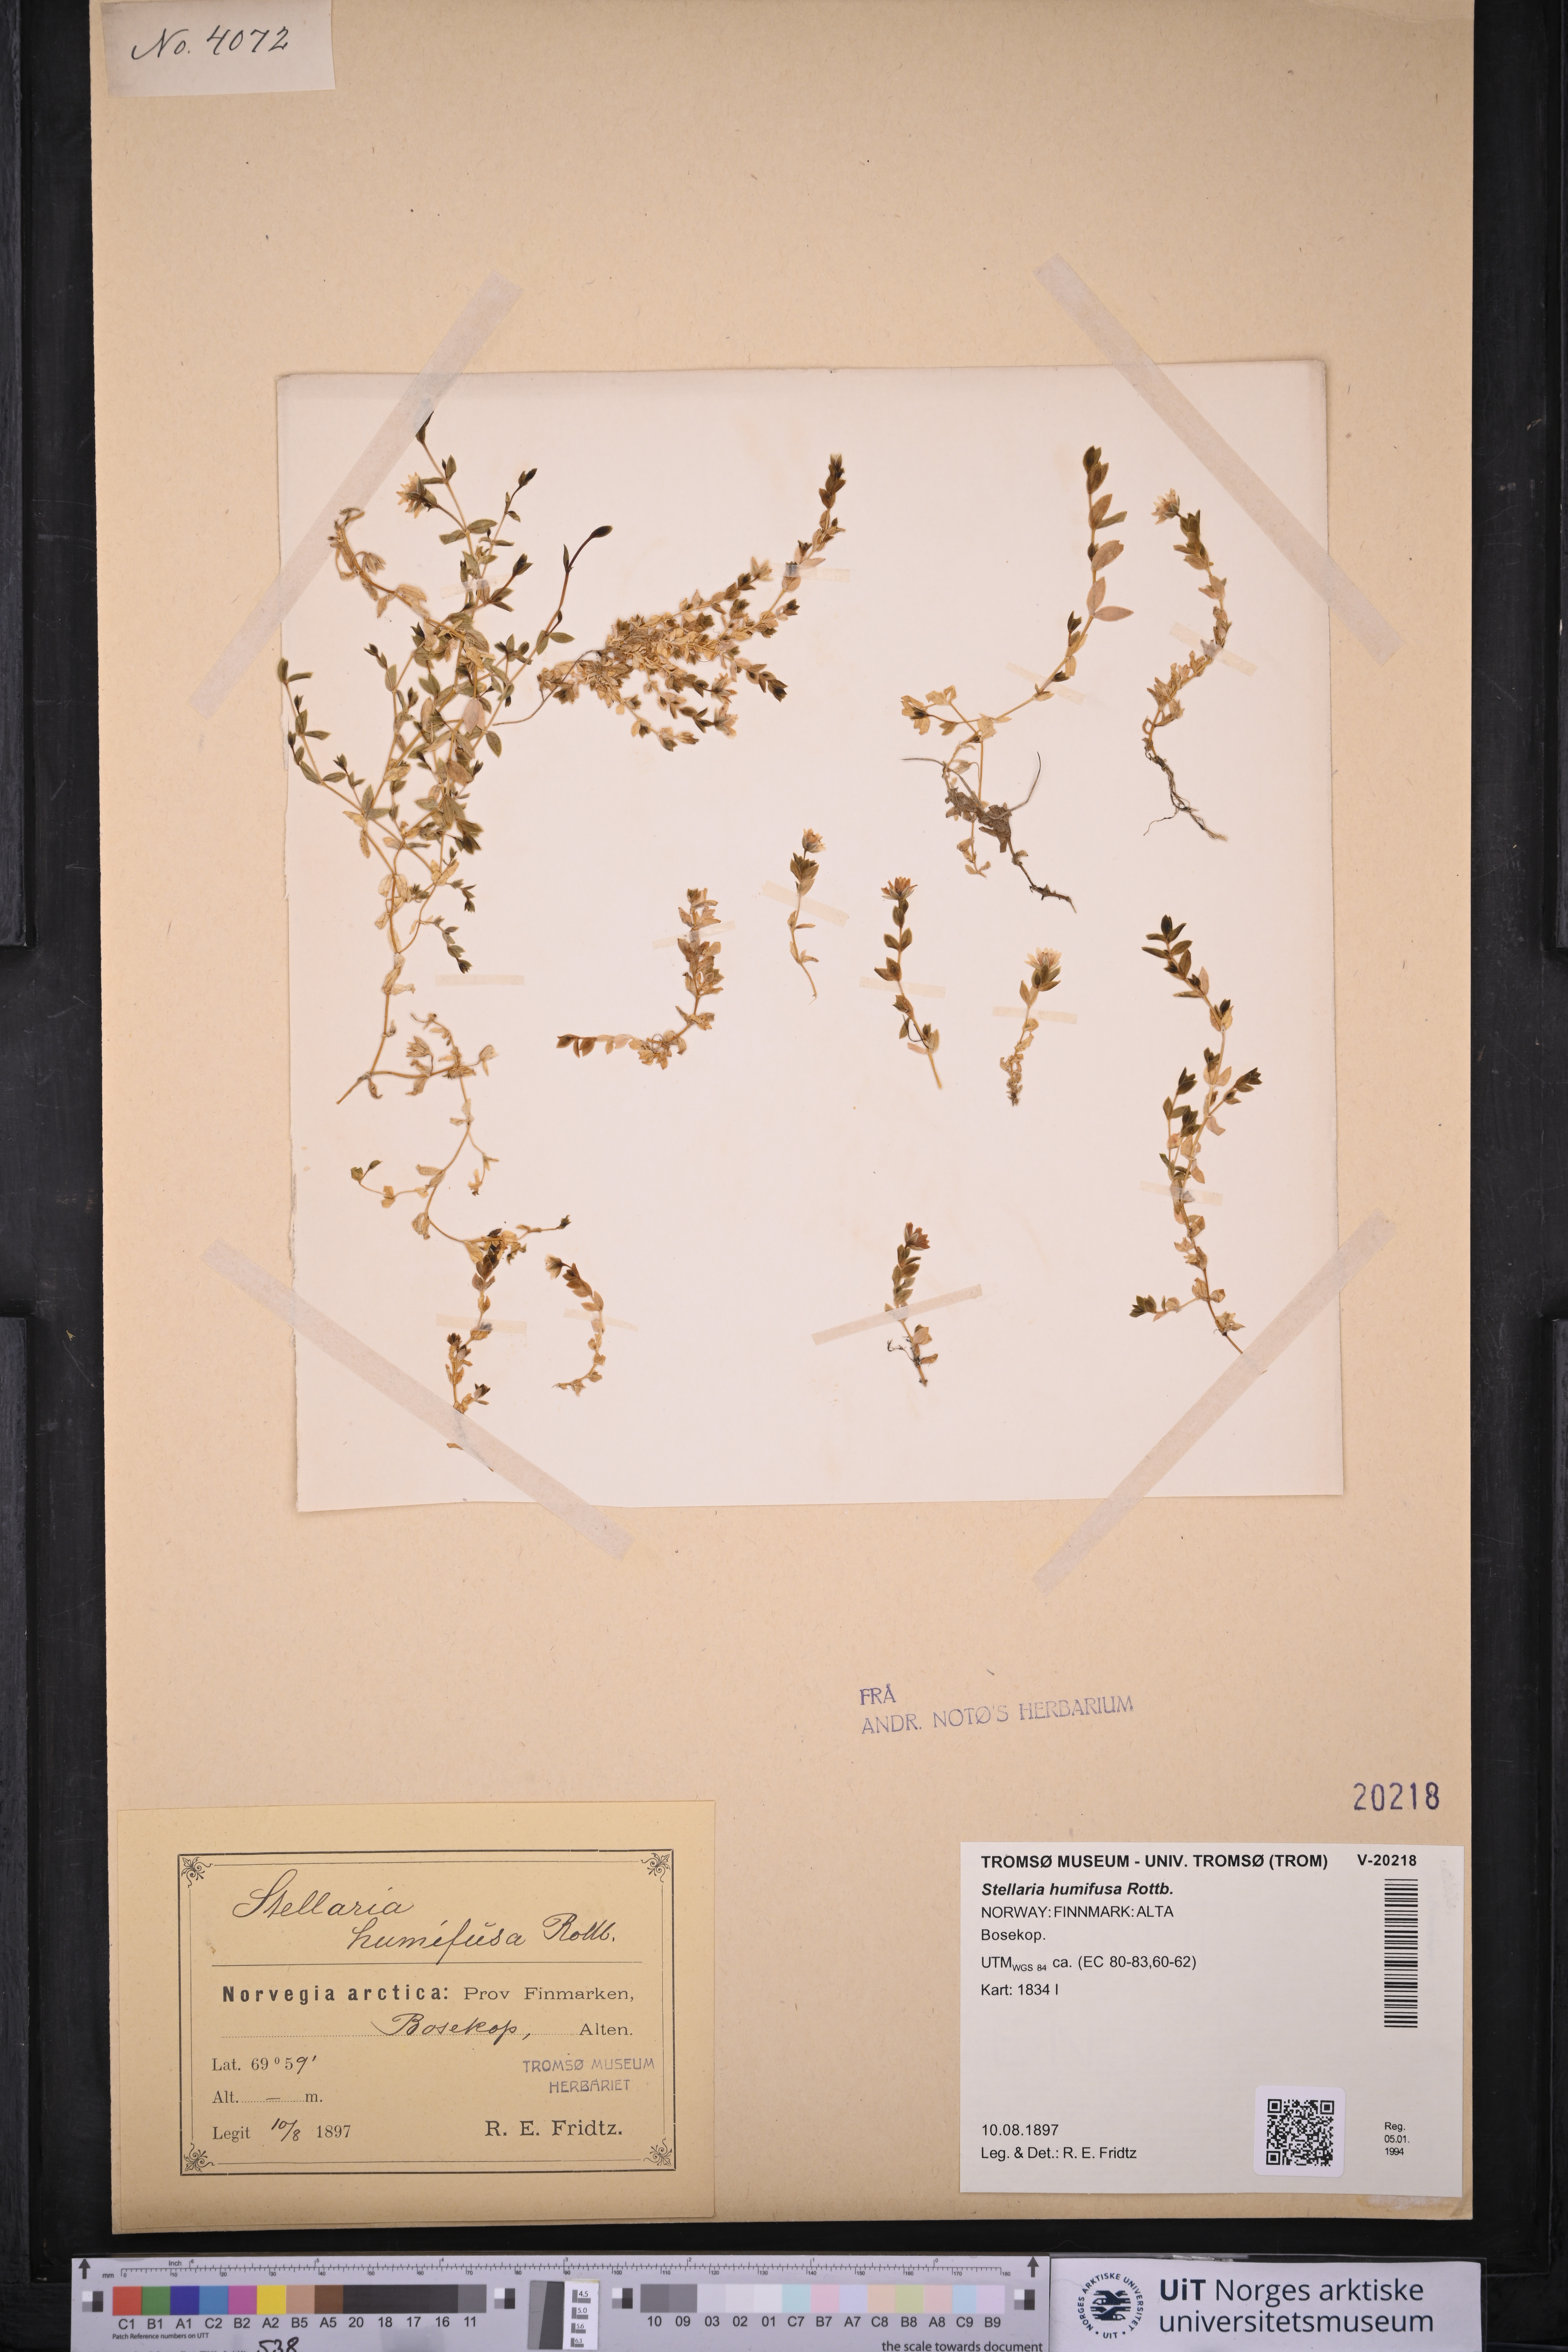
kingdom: Plantae
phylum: Tracheophyta
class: Magnoliopsida
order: Caryophyllales
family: Caryophyllaceae
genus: Stellaria
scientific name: Stellaria humifusa
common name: Creeping starwort
